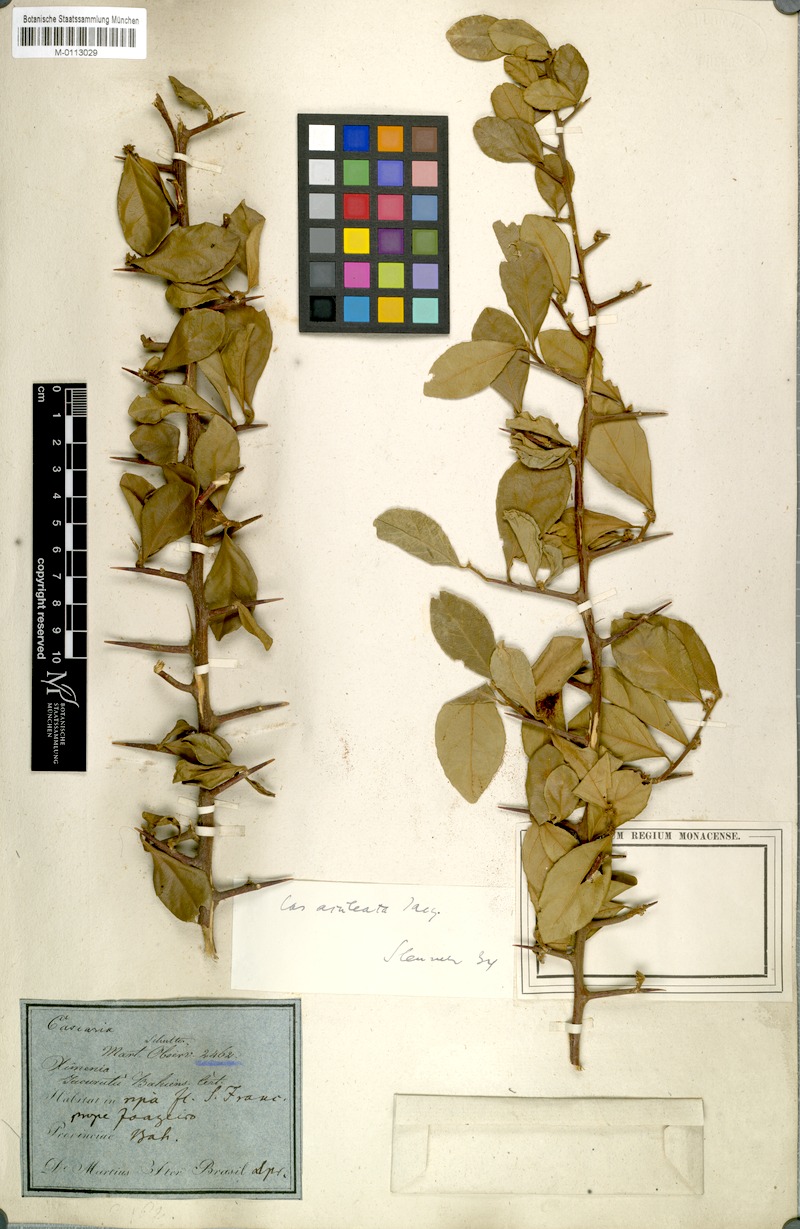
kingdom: Plantae
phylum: Tracheophyta
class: Magnoliopsida
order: Malpighiales
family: Salicaceae
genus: Casearia
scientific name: Casearia aculeata
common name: Cockspur
